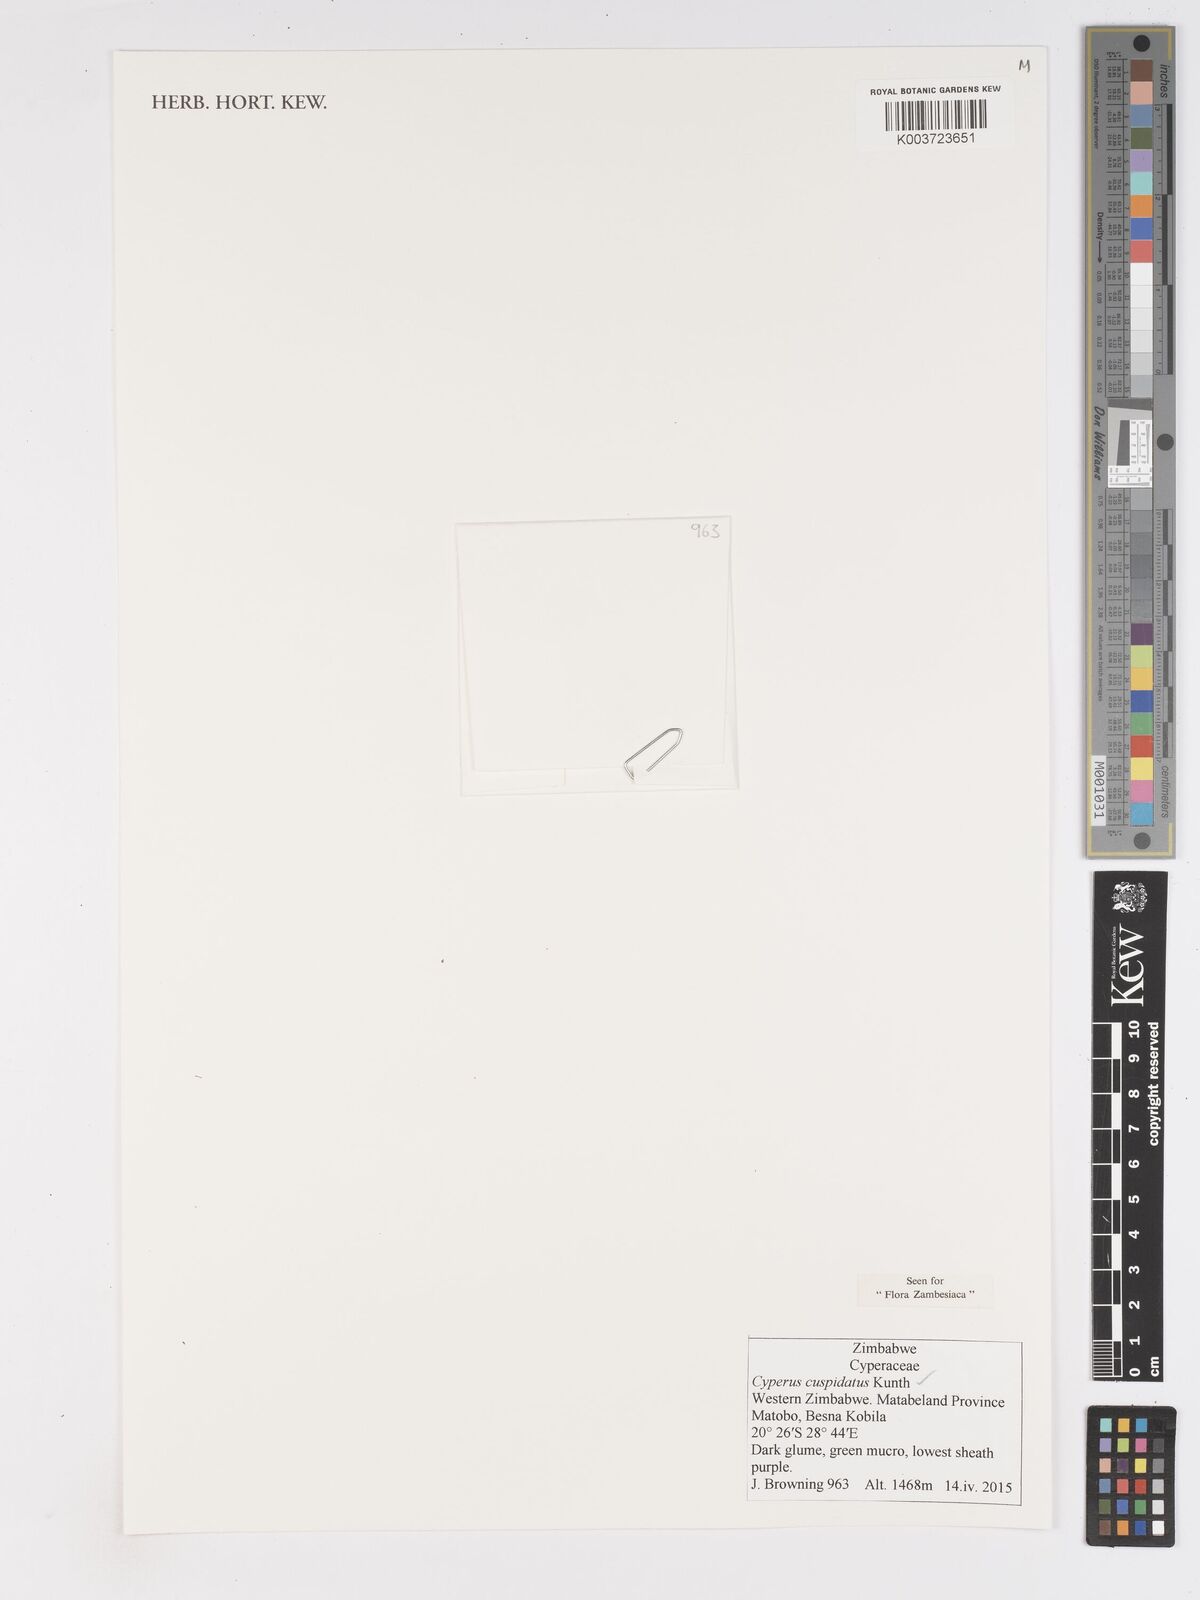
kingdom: Plantae
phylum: Tracheophyta
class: Liliopsida
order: Poales
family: Cyperaceae
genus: Cyperus
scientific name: Cyperus betafensis
